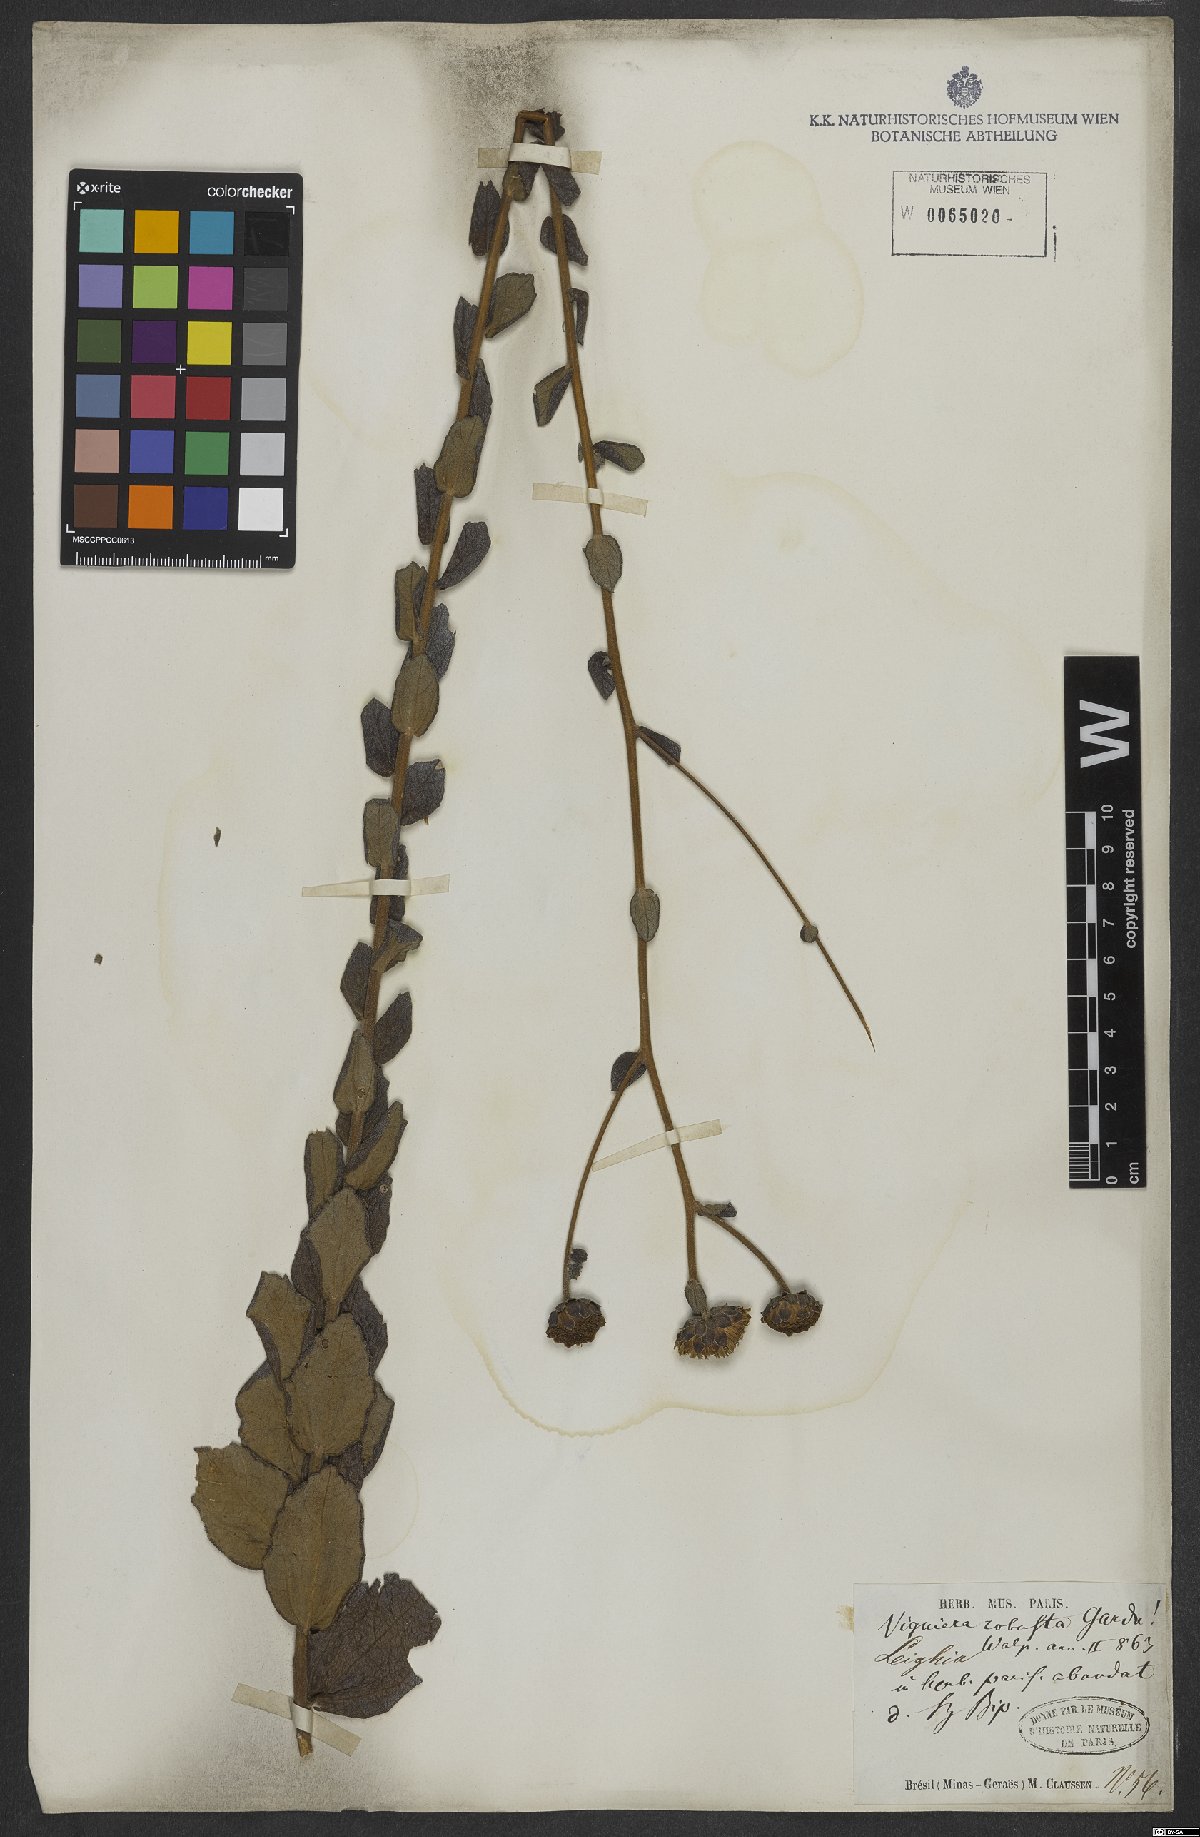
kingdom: Plantae
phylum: Tracheophyta
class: Magnoliopsida
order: Asterales
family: Asteraceae
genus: Aldama
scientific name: Aldama robusta
